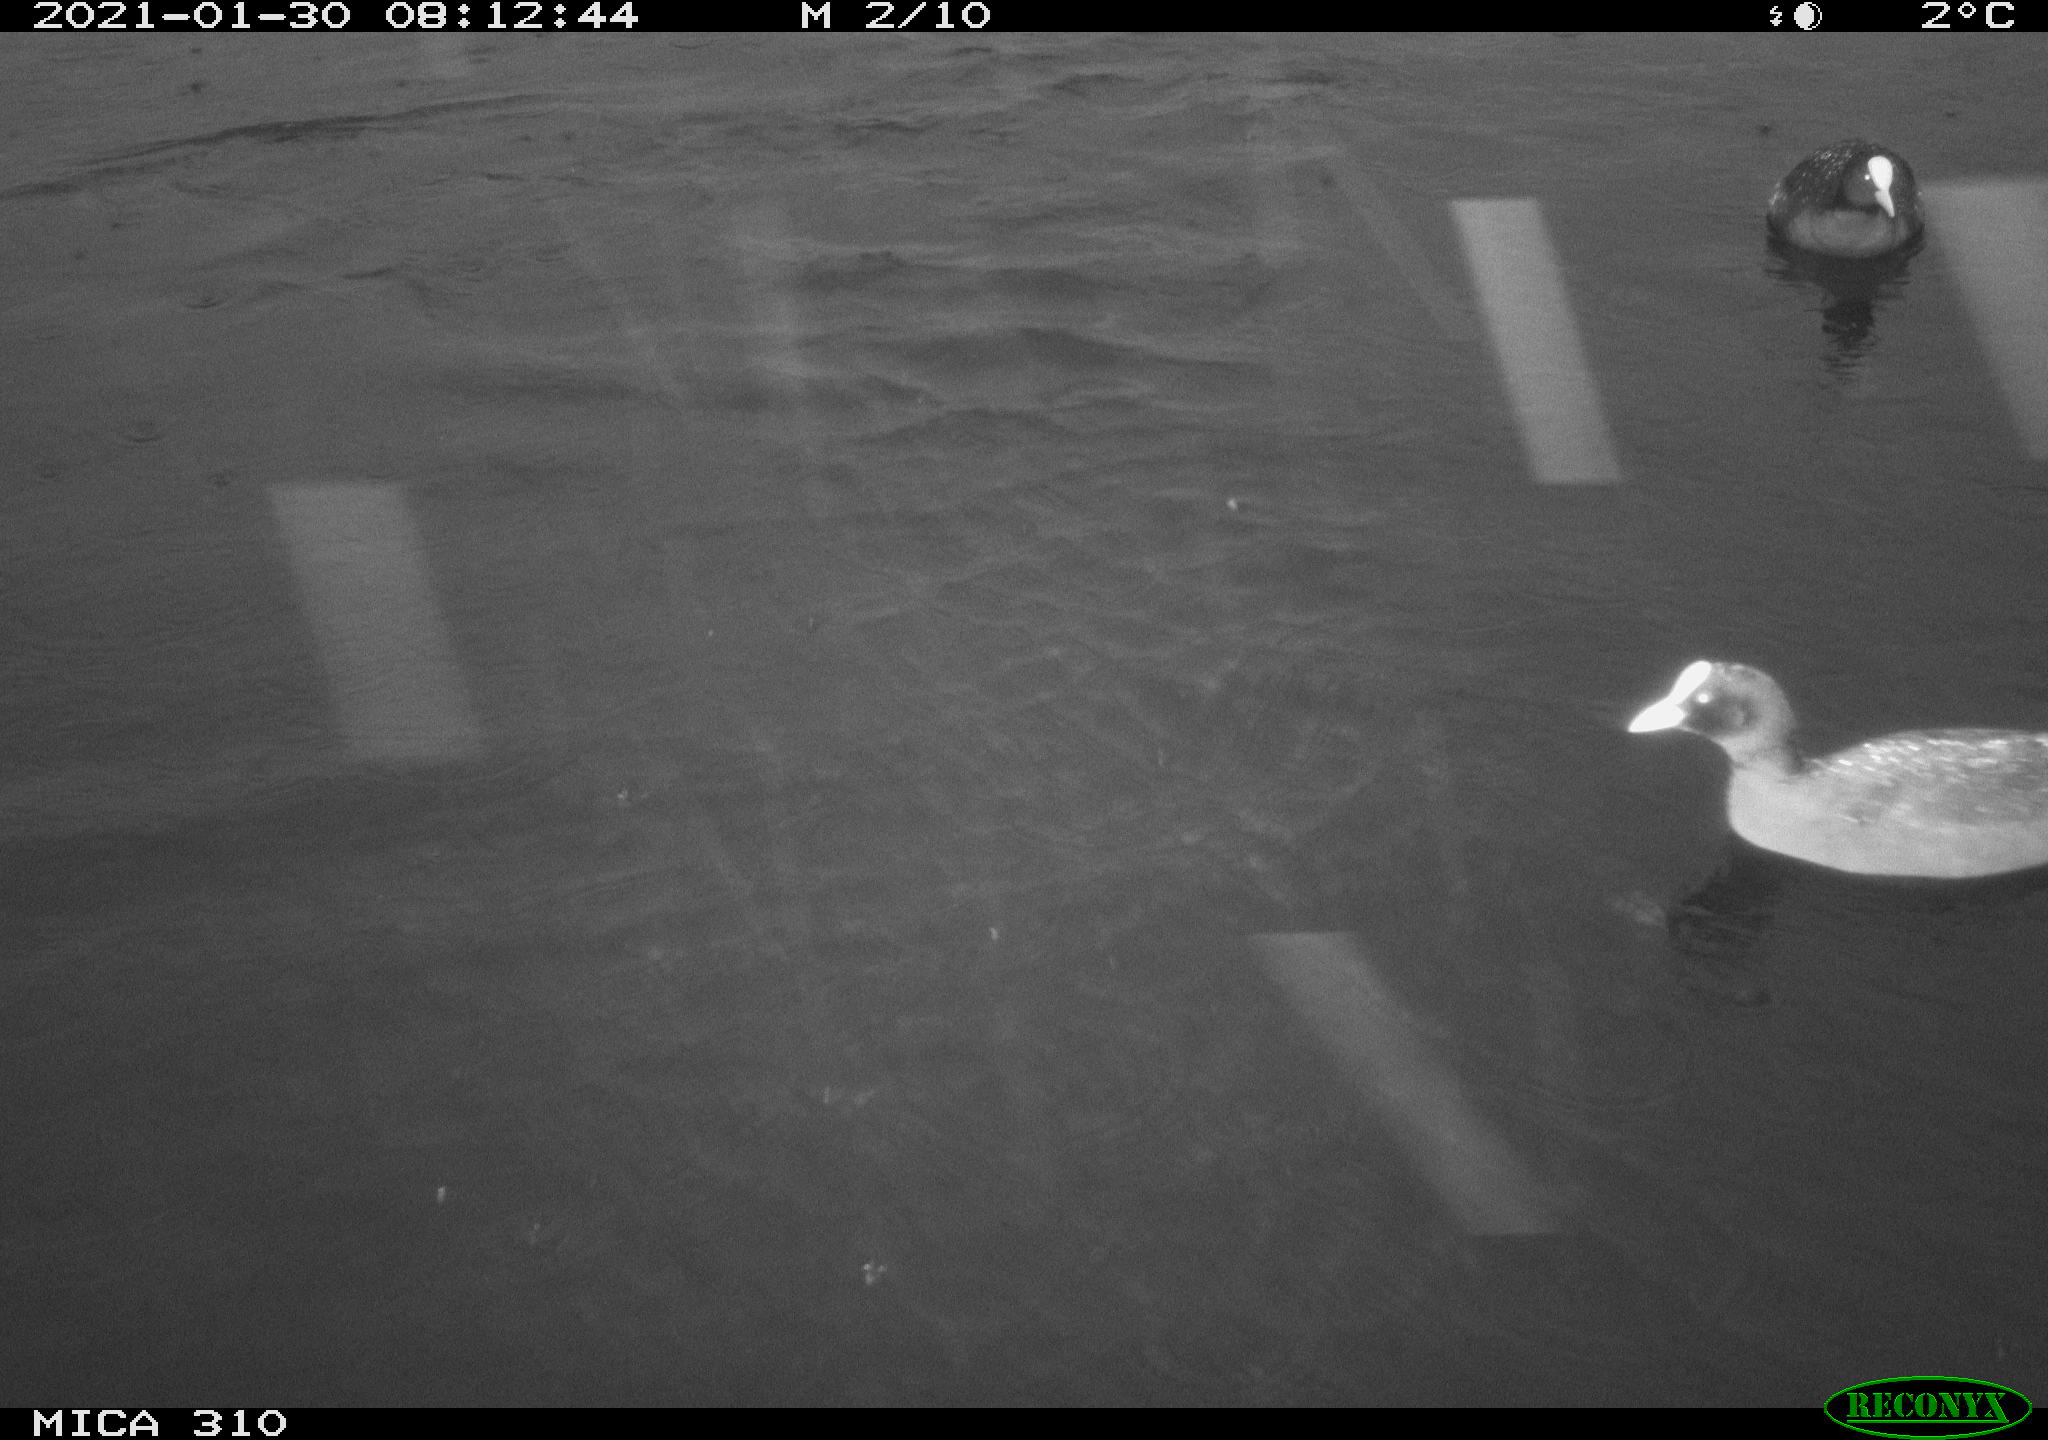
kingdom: Animalia
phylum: Chordata
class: Aves
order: Gruiformes
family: Rallidae
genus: Fulica
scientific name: Fulica atra
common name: Eurasian coot
